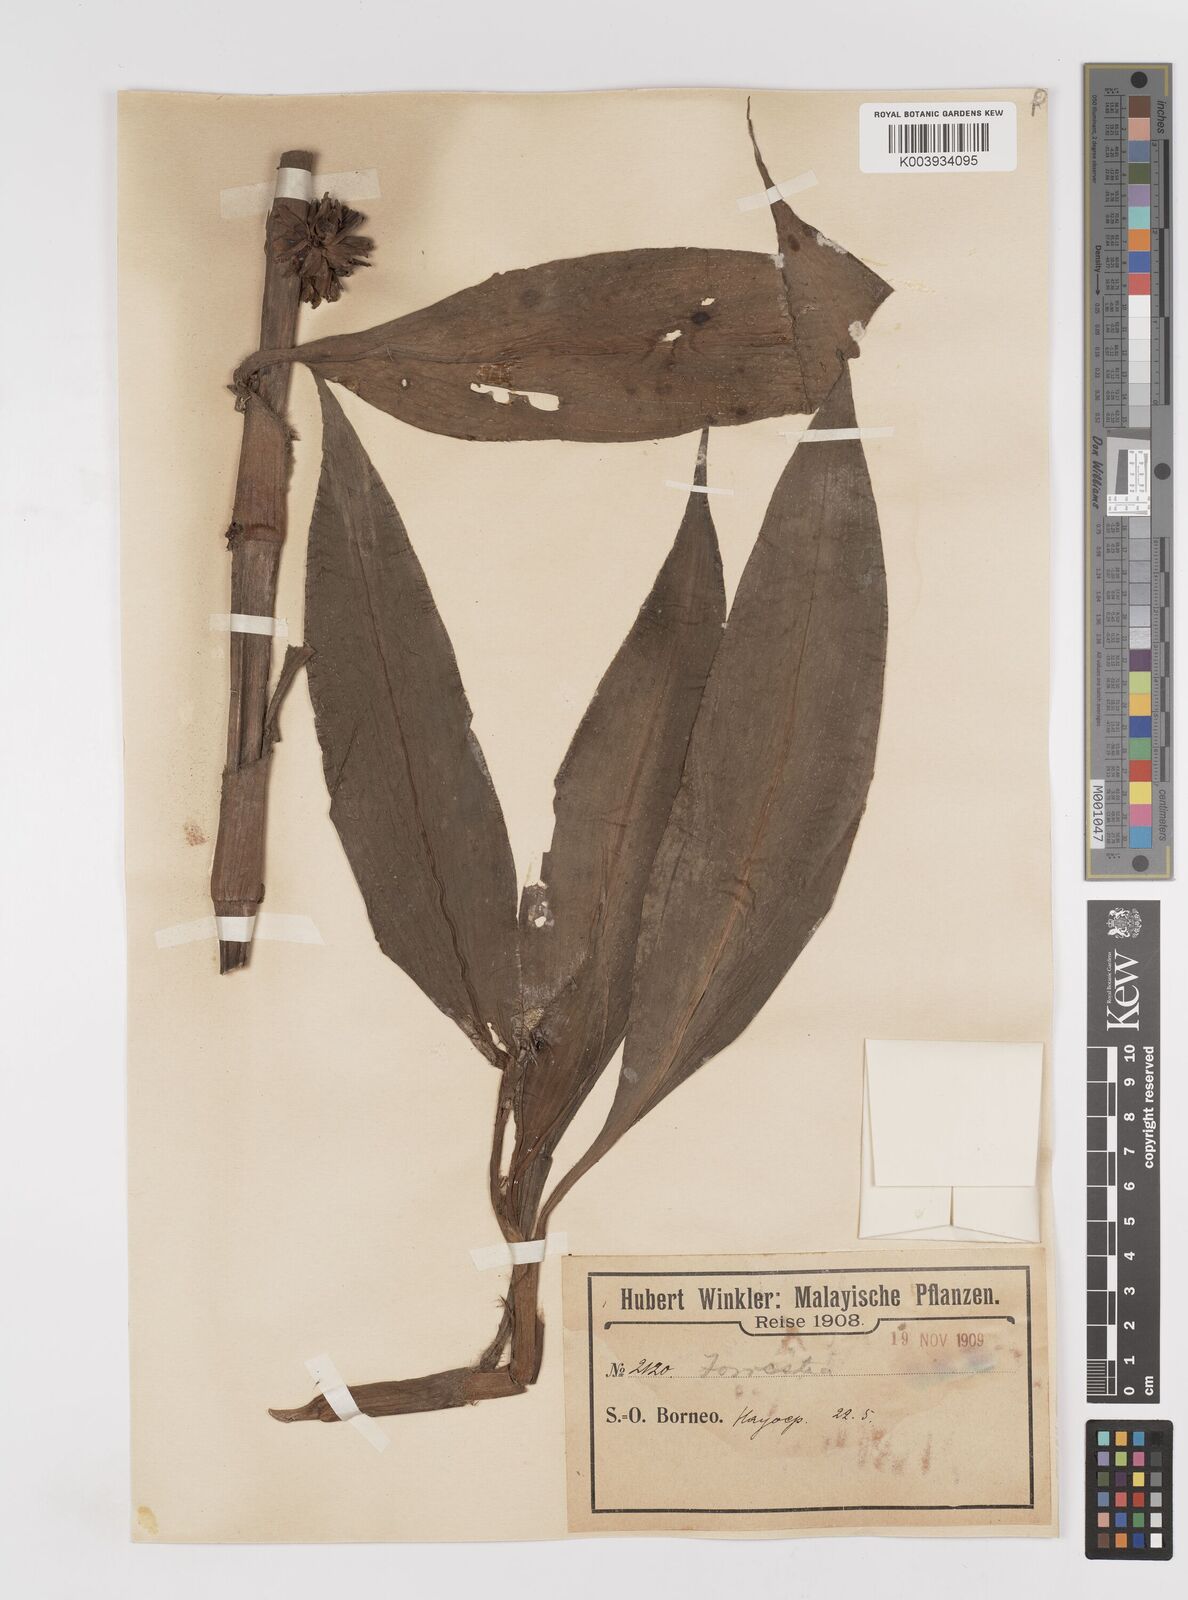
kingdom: Plantae
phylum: Tracheophyta
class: Liliopsida
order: Commelinales
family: Commelinaceae
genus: Amischotolype
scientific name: Amischotolype
